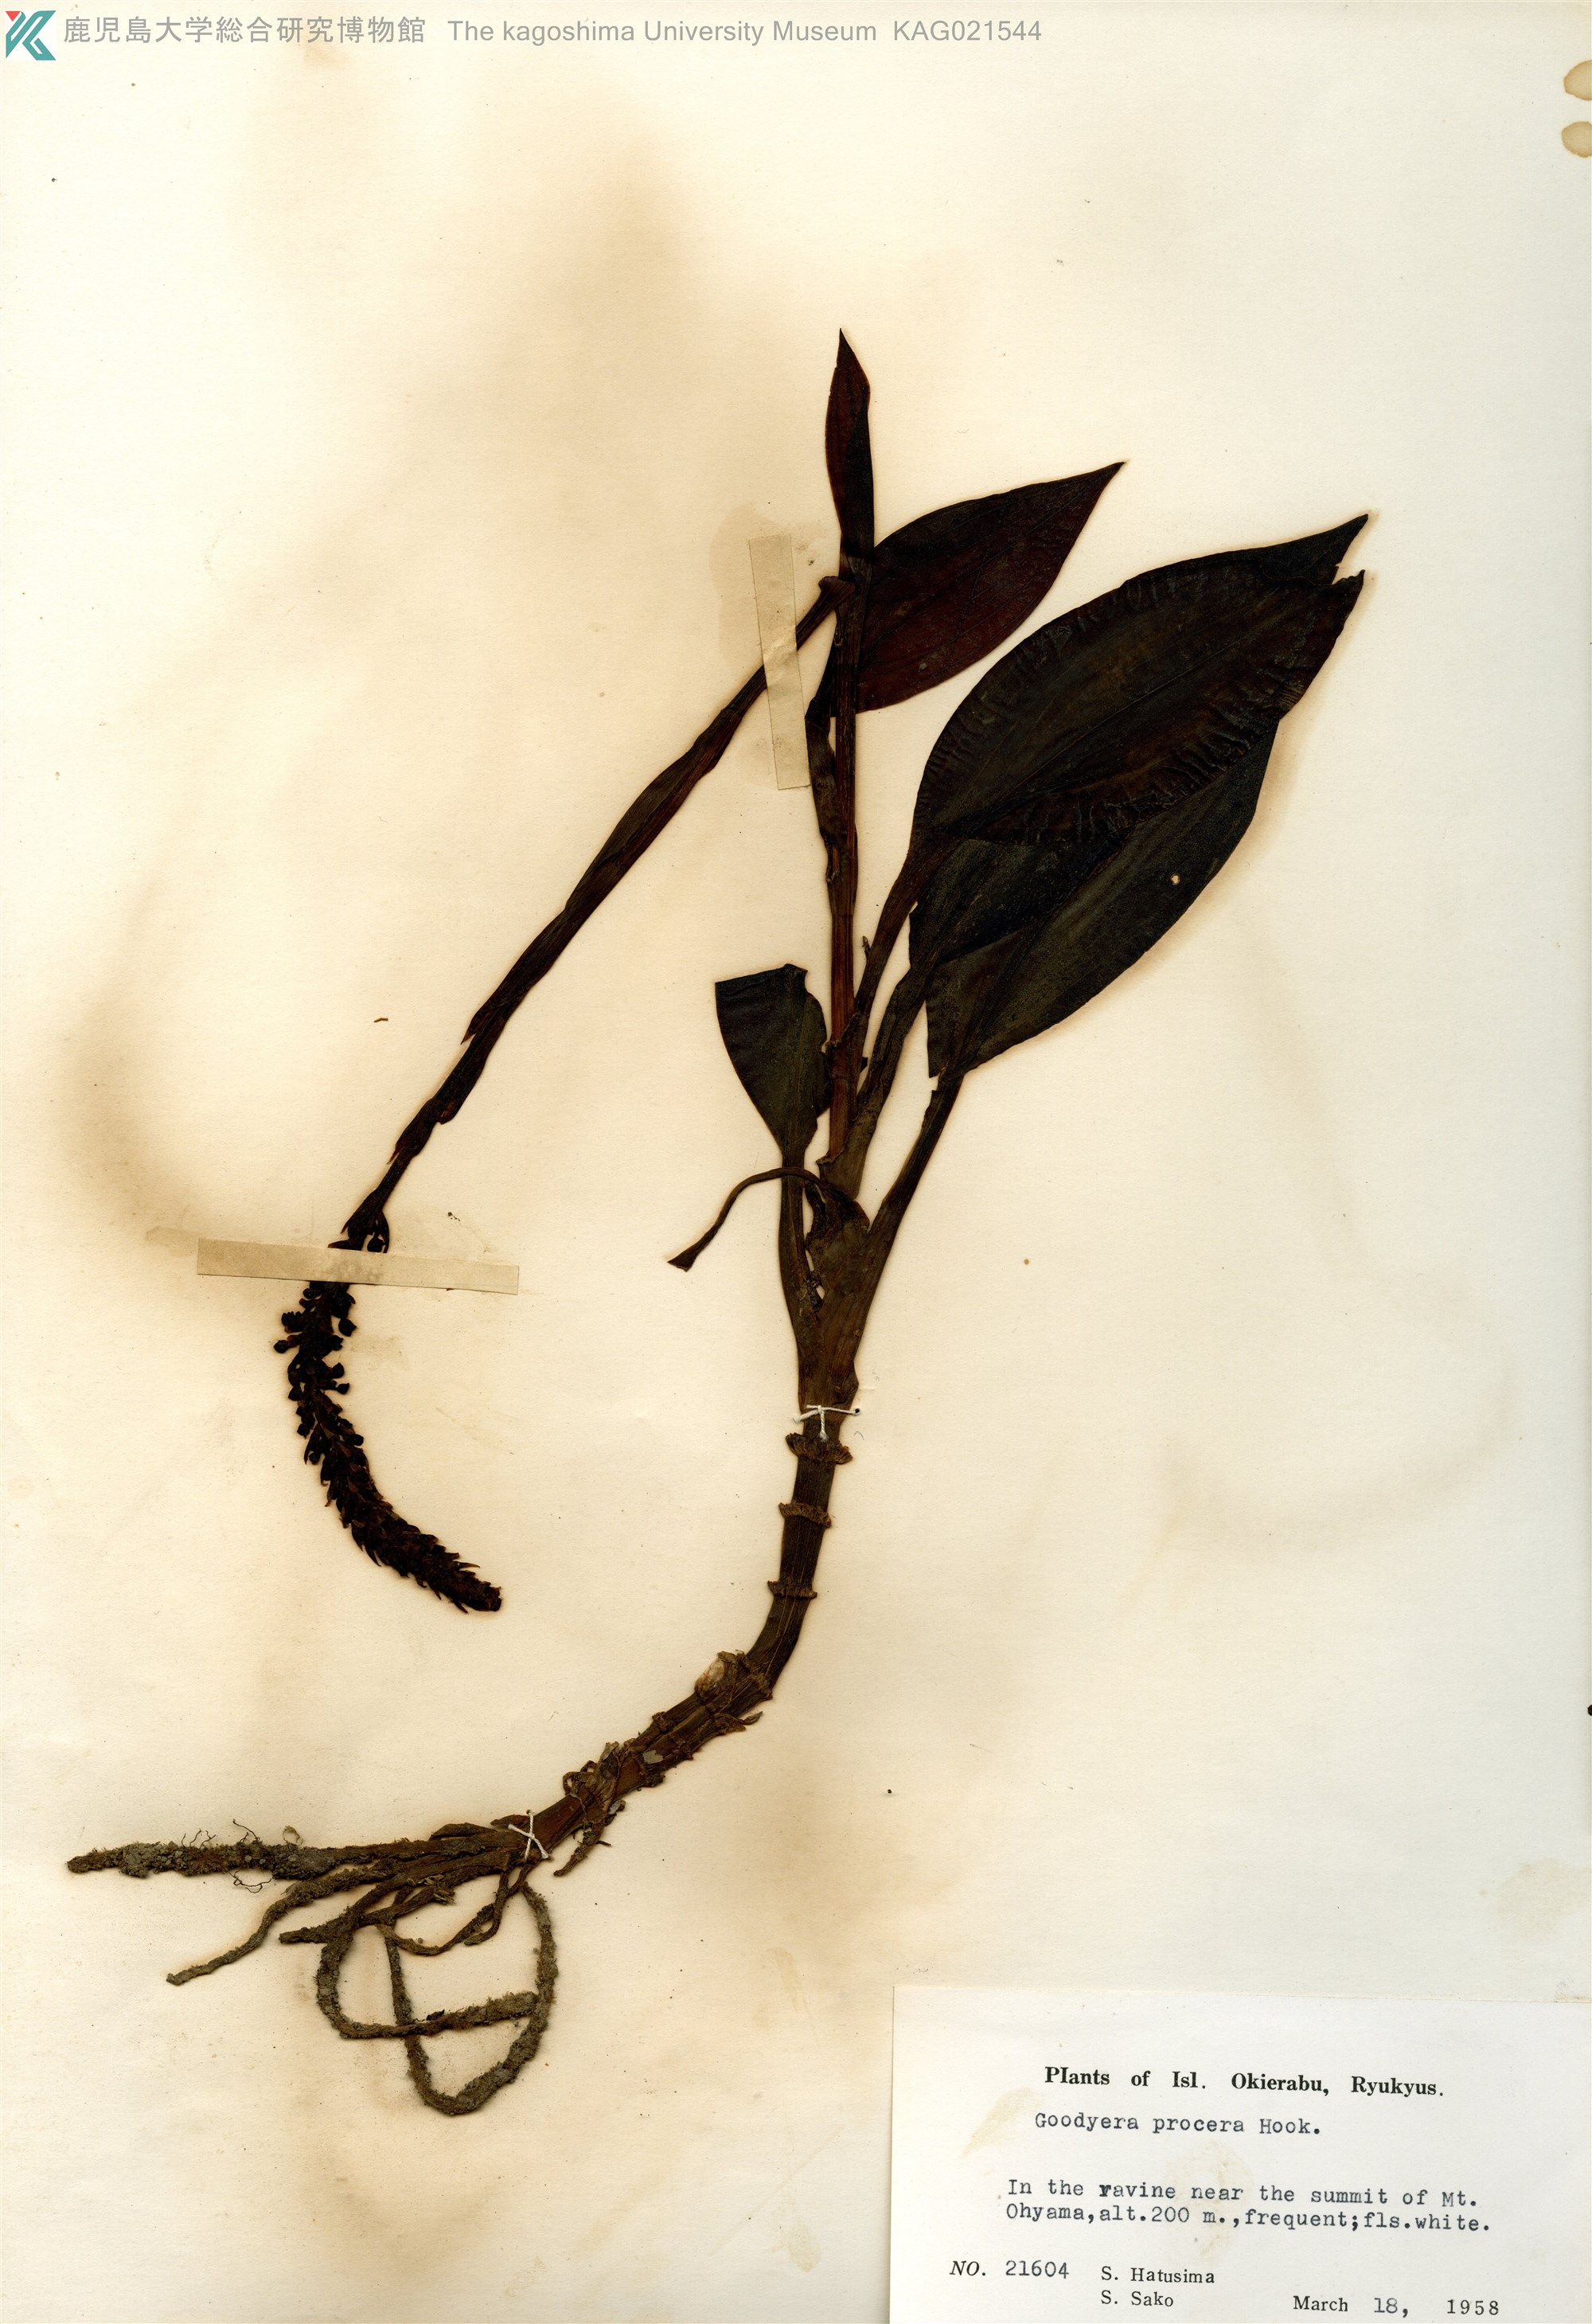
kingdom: Plantae
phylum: Tracheophyta
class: Liliopsida
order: Asparagales
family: Orchidaceae
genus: Goodyera
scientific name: Goodyera procera
